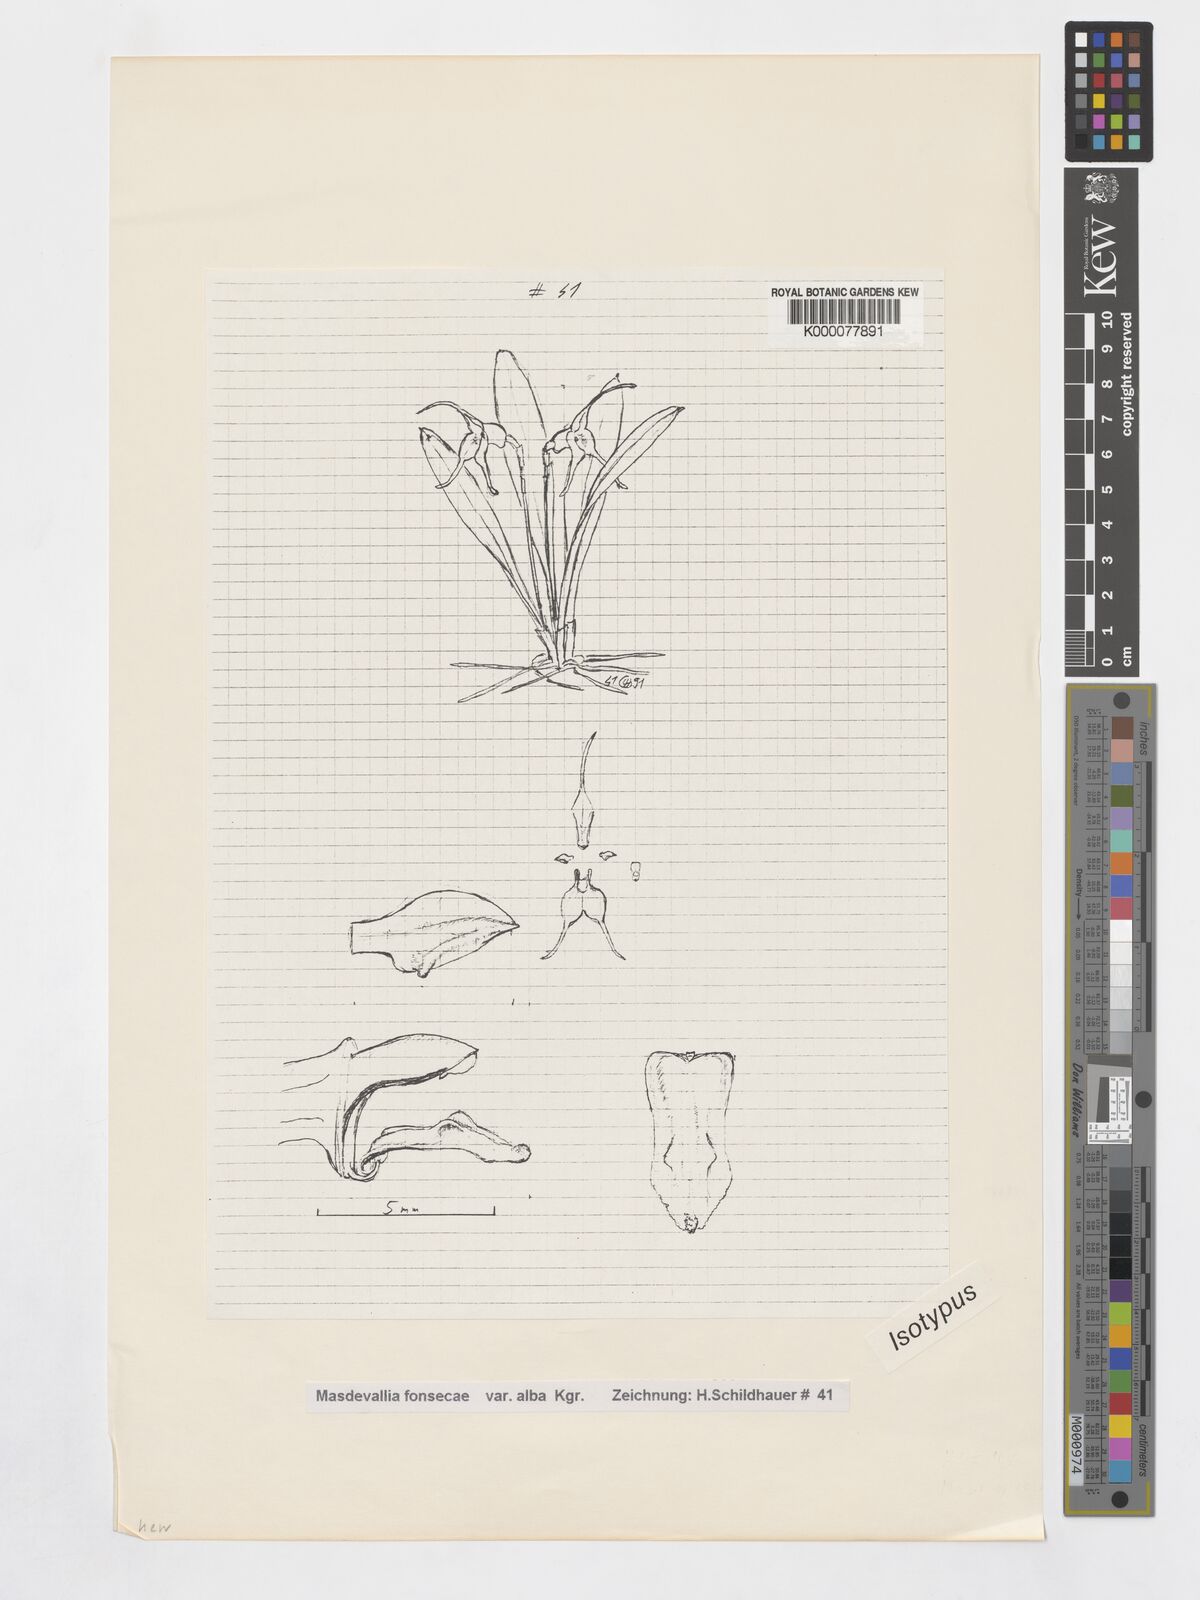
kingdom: Plantae
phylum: Tracheophyta
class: Liliopsida
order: Asparagales
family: Orchidaceae
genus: Masdevallia
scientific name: Masdevallia
